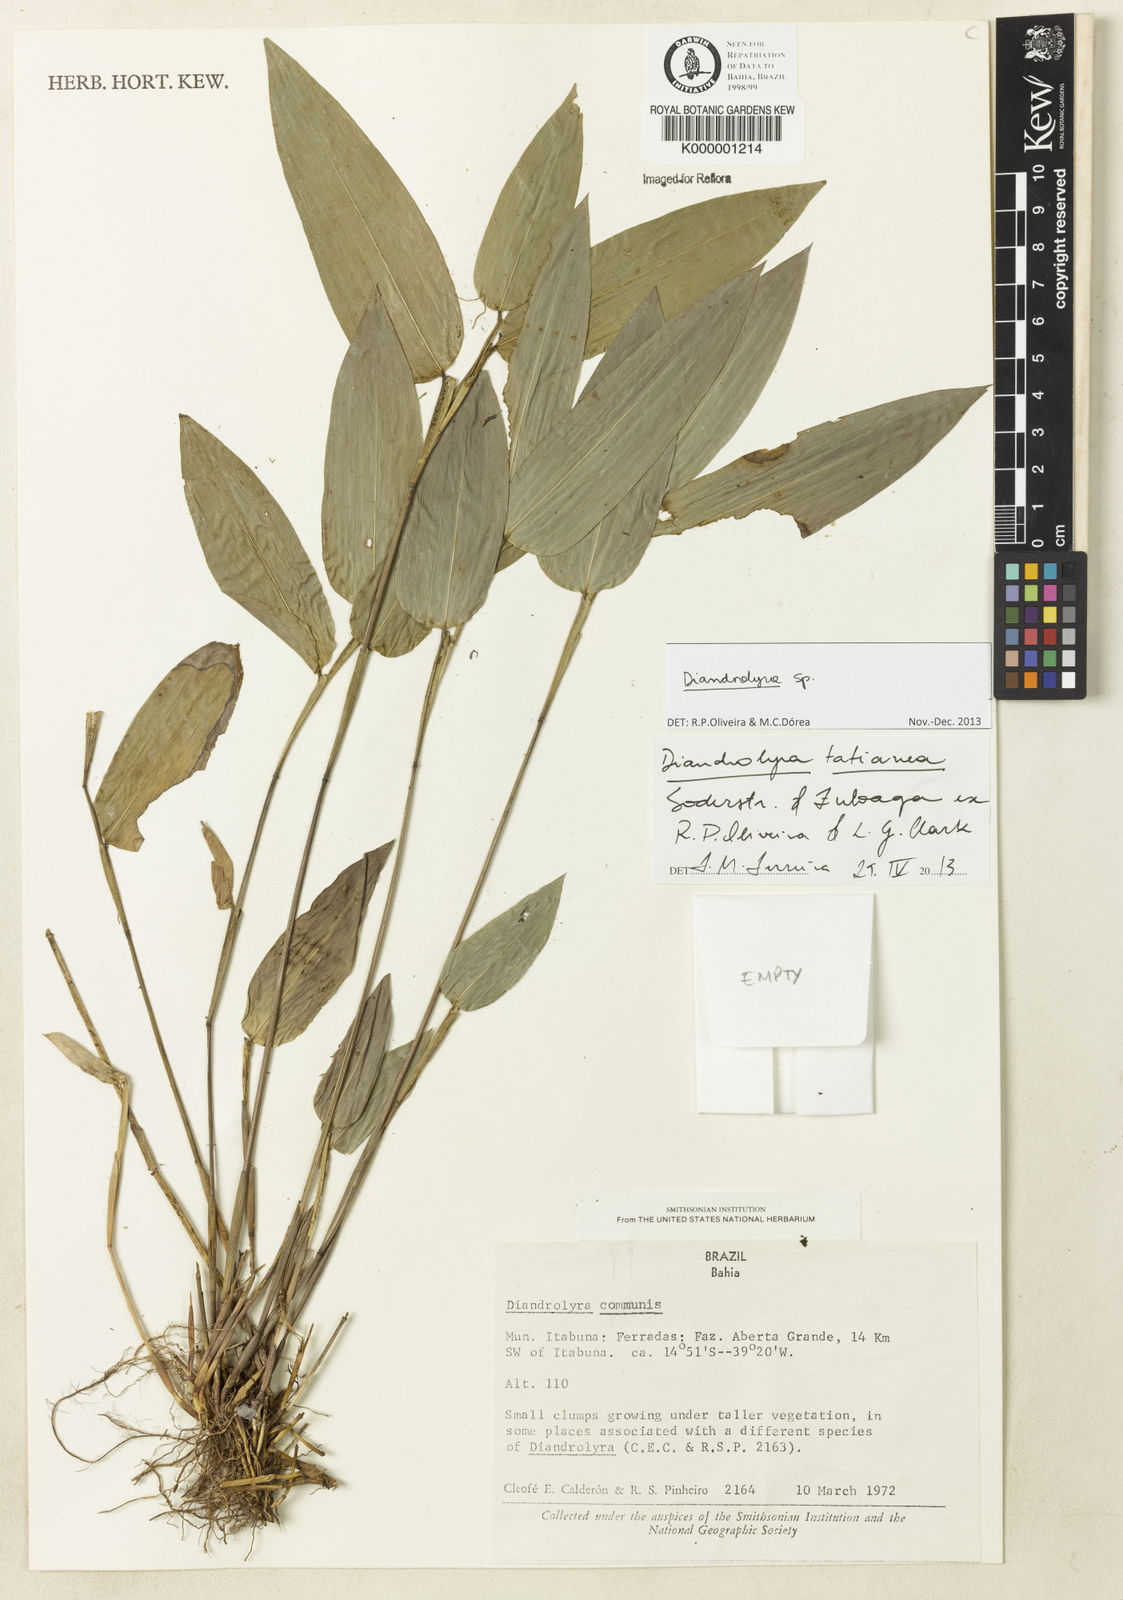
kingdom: Plantae
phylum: Tracheophyta
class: Liliopsida
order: Poales
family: Poaceae
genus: Diandrolyra
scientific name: Diandrolyra
